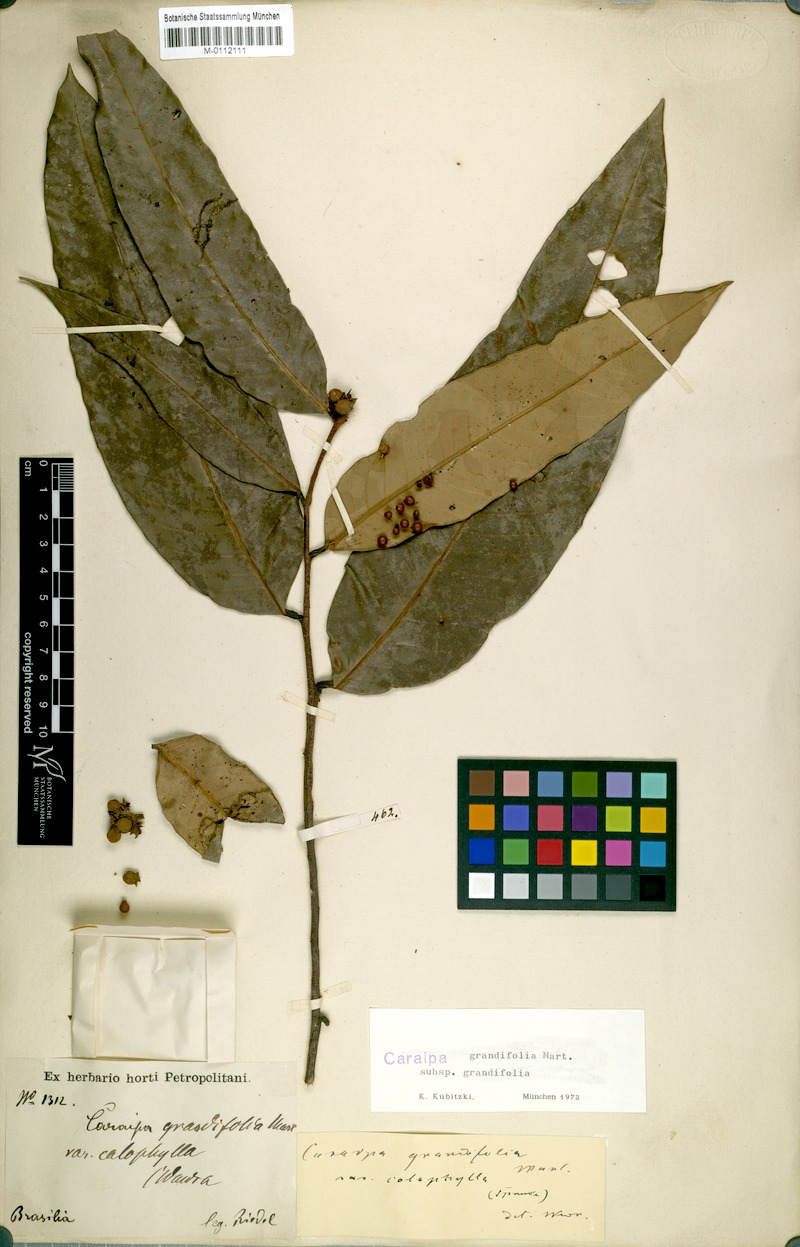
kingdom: Plantae
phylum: Tracheophyta
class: Magnoliopsida
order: Malpighiales
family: Calophyllaceae
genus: Caraipa
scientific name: Caraipa grandifolia
